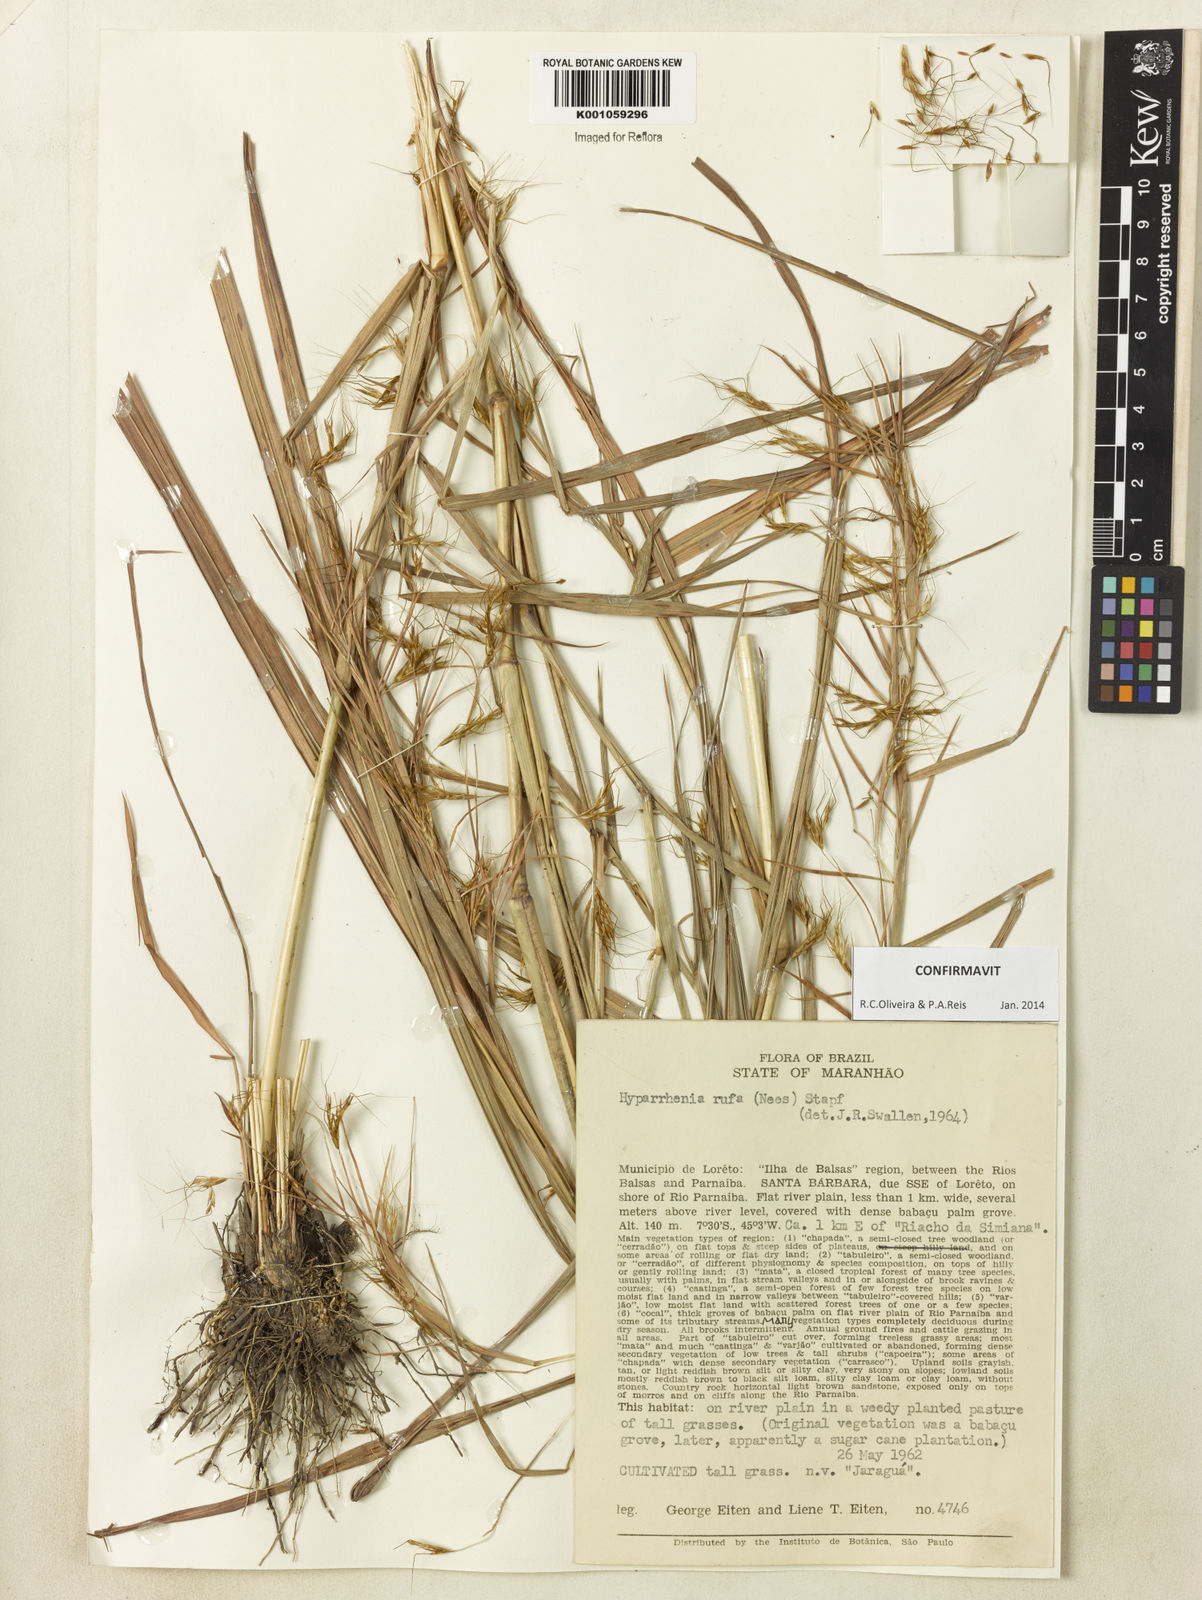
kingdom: Plantae
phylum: Tracheophyta
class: Liliopsida
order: Poales
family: Poaceae
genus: Hyparrhenia
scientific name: Hyparrhenia rufa
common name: Jaraguagrass
